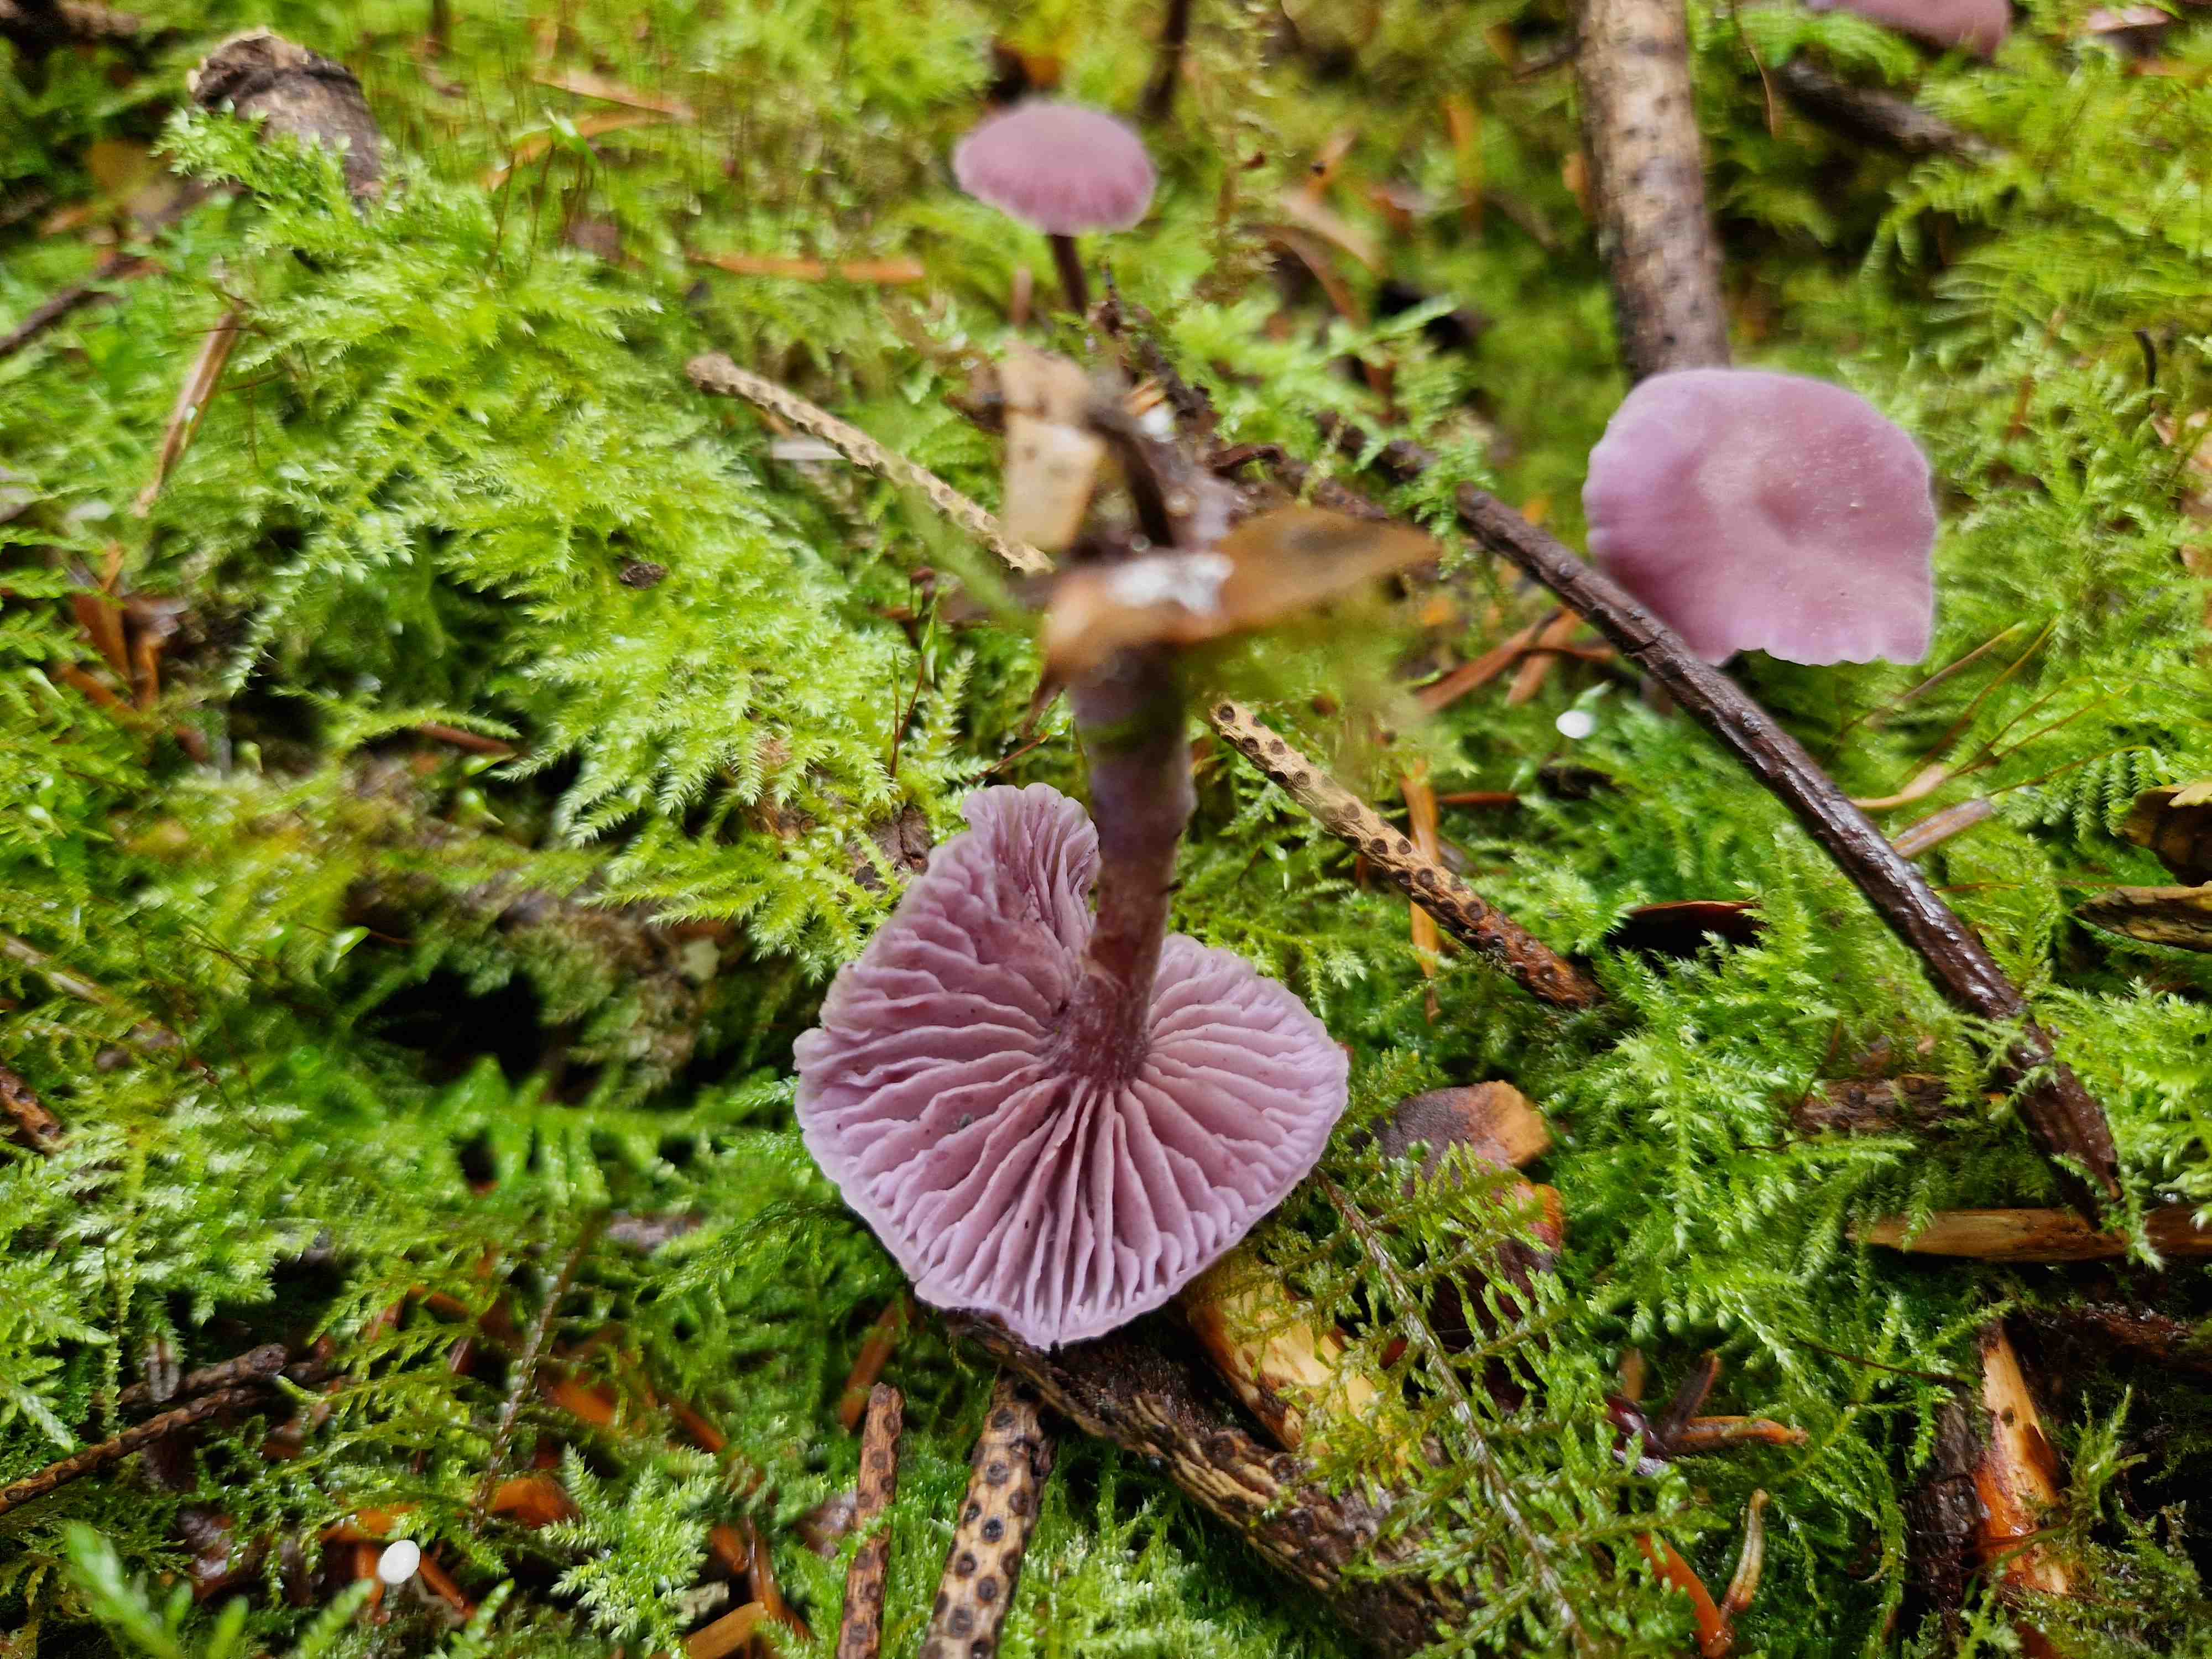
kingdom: Fungi
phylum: Basidiomycota
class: Agaricomycetes
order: Agaricales
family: Hydnangiaceae
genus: Laccaria
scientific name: Laccaria amethystina
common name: violet ametysthat
